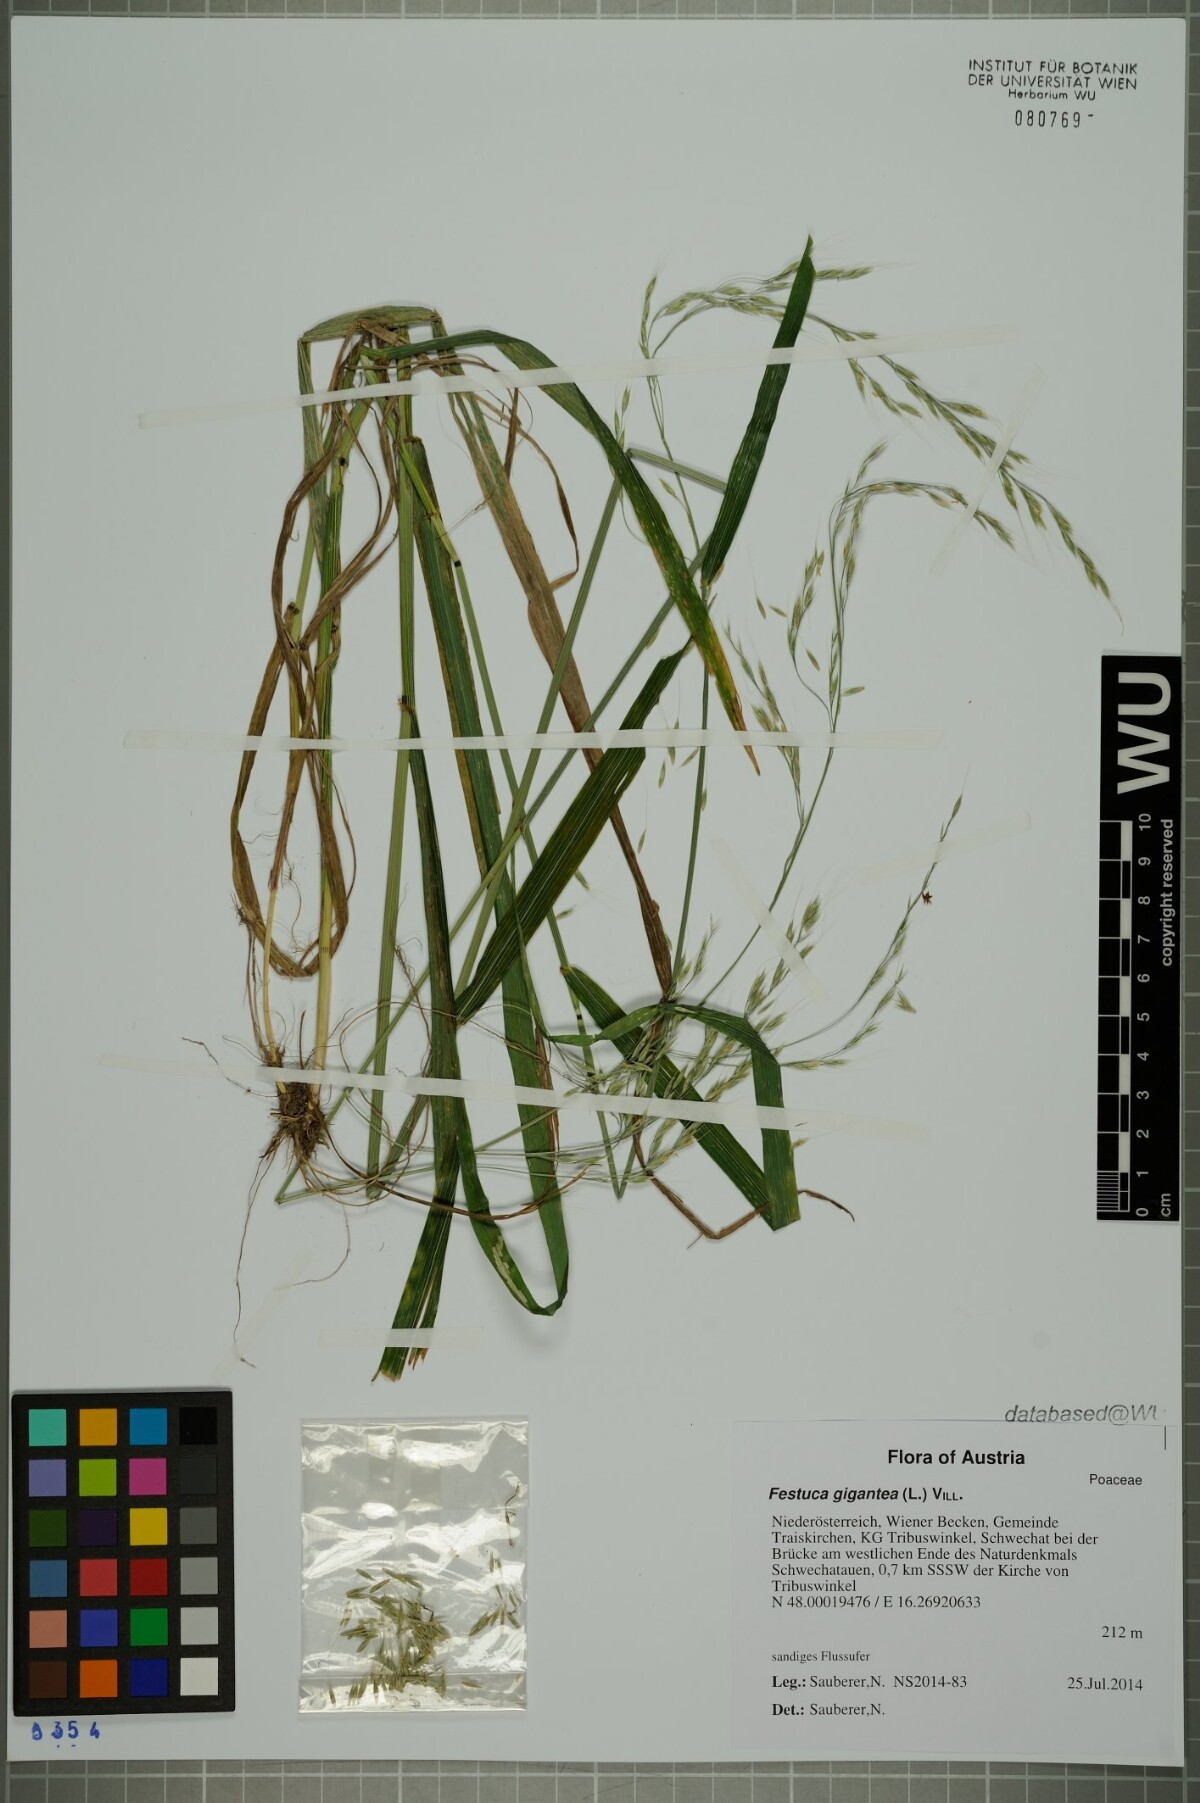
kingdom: Plantae
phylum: Tracheophyta
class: Liliopsida
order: Poales
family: Poaceae
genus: Lolium
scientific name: Lolium giganteum
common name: Giant fescue
